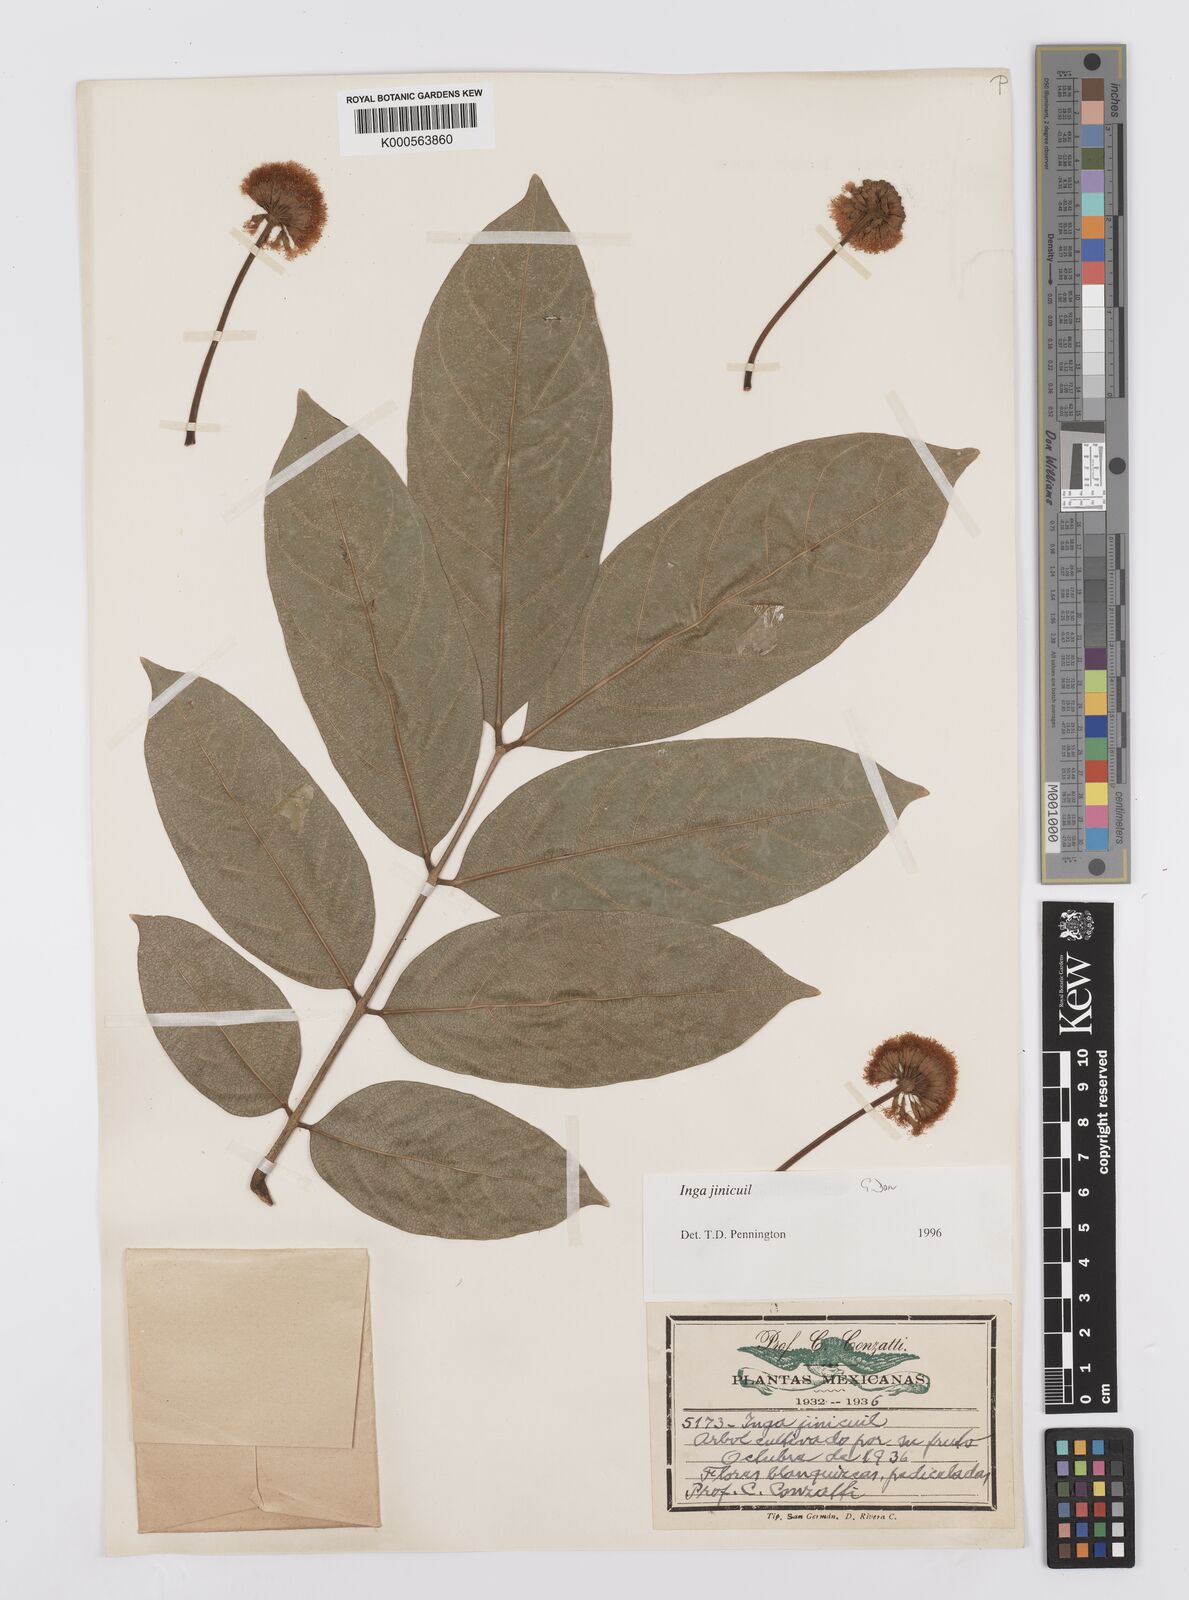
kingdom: Plantae
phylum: Tracheophyta
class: Magnoliopsida
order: Fabales
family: Fabaceae
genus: Inga
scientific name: Inga inicuil
